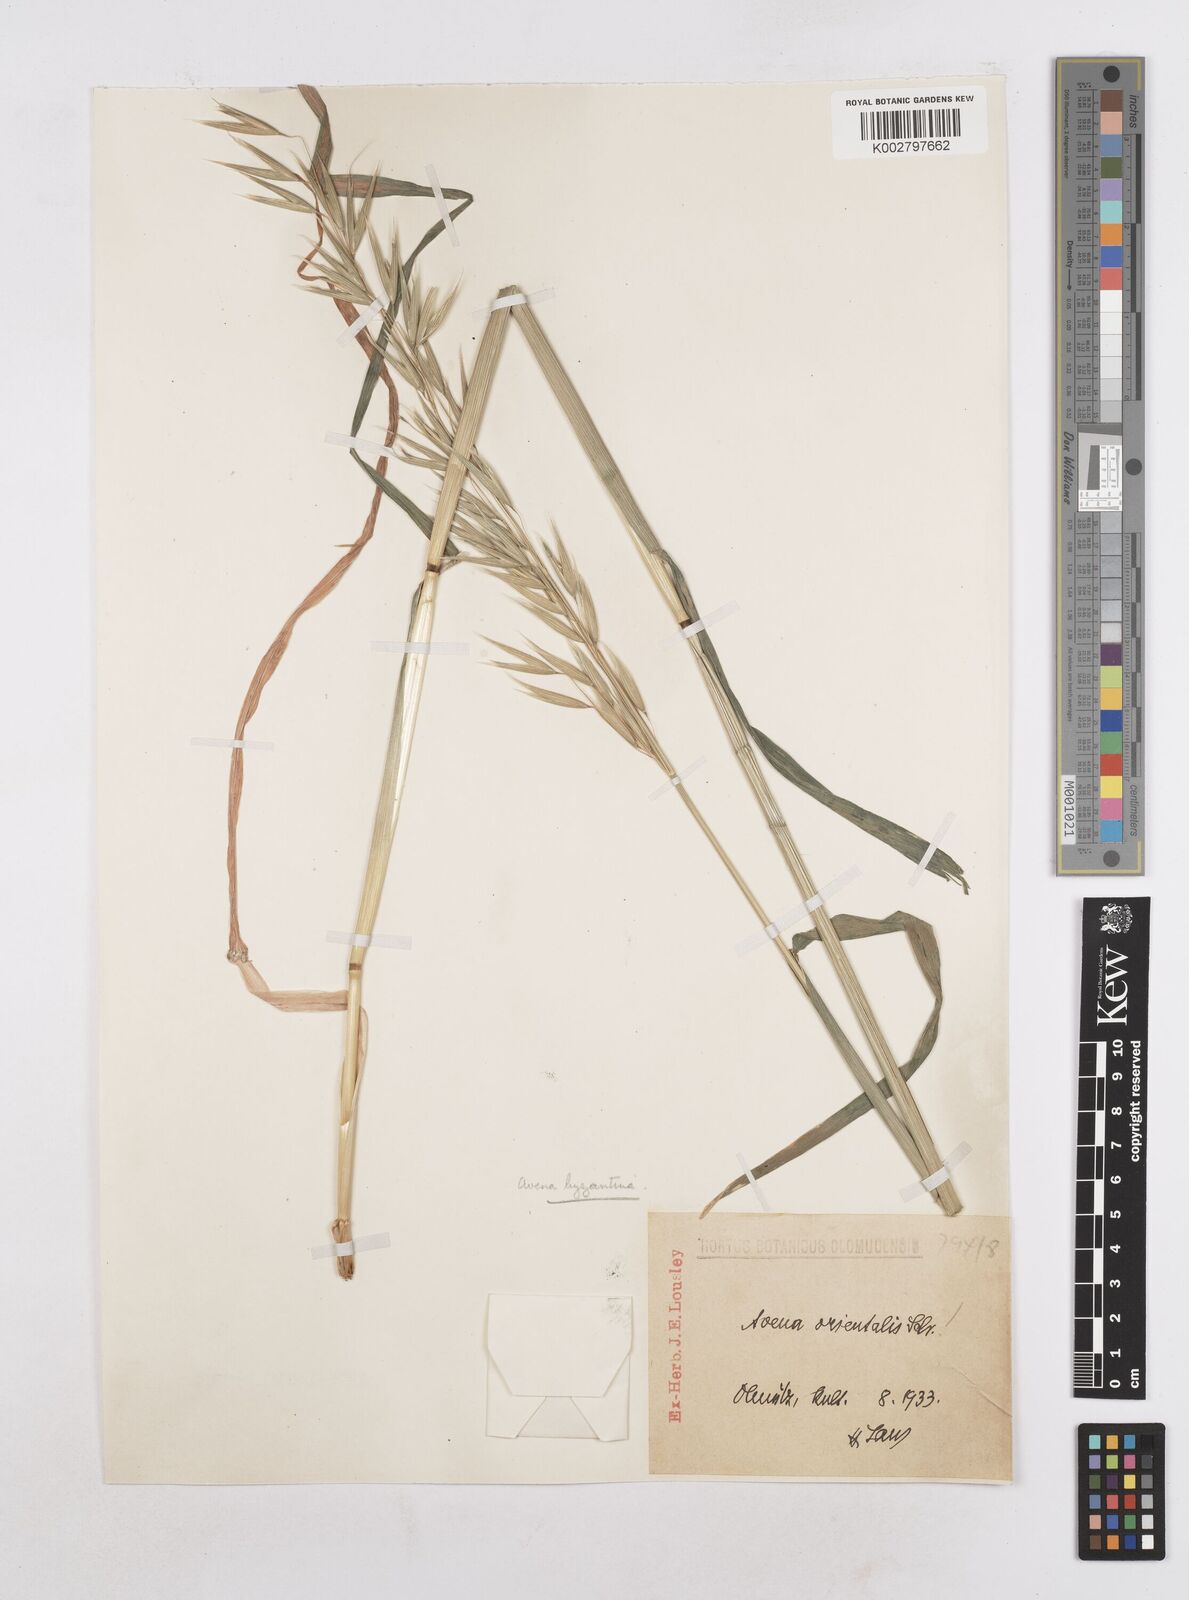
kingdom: Plantae
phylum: Tracheophyta
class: Liliopsida
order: Poales
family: Poaceae
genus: Avena
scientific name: Avena byzantina
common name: Algerian oat
